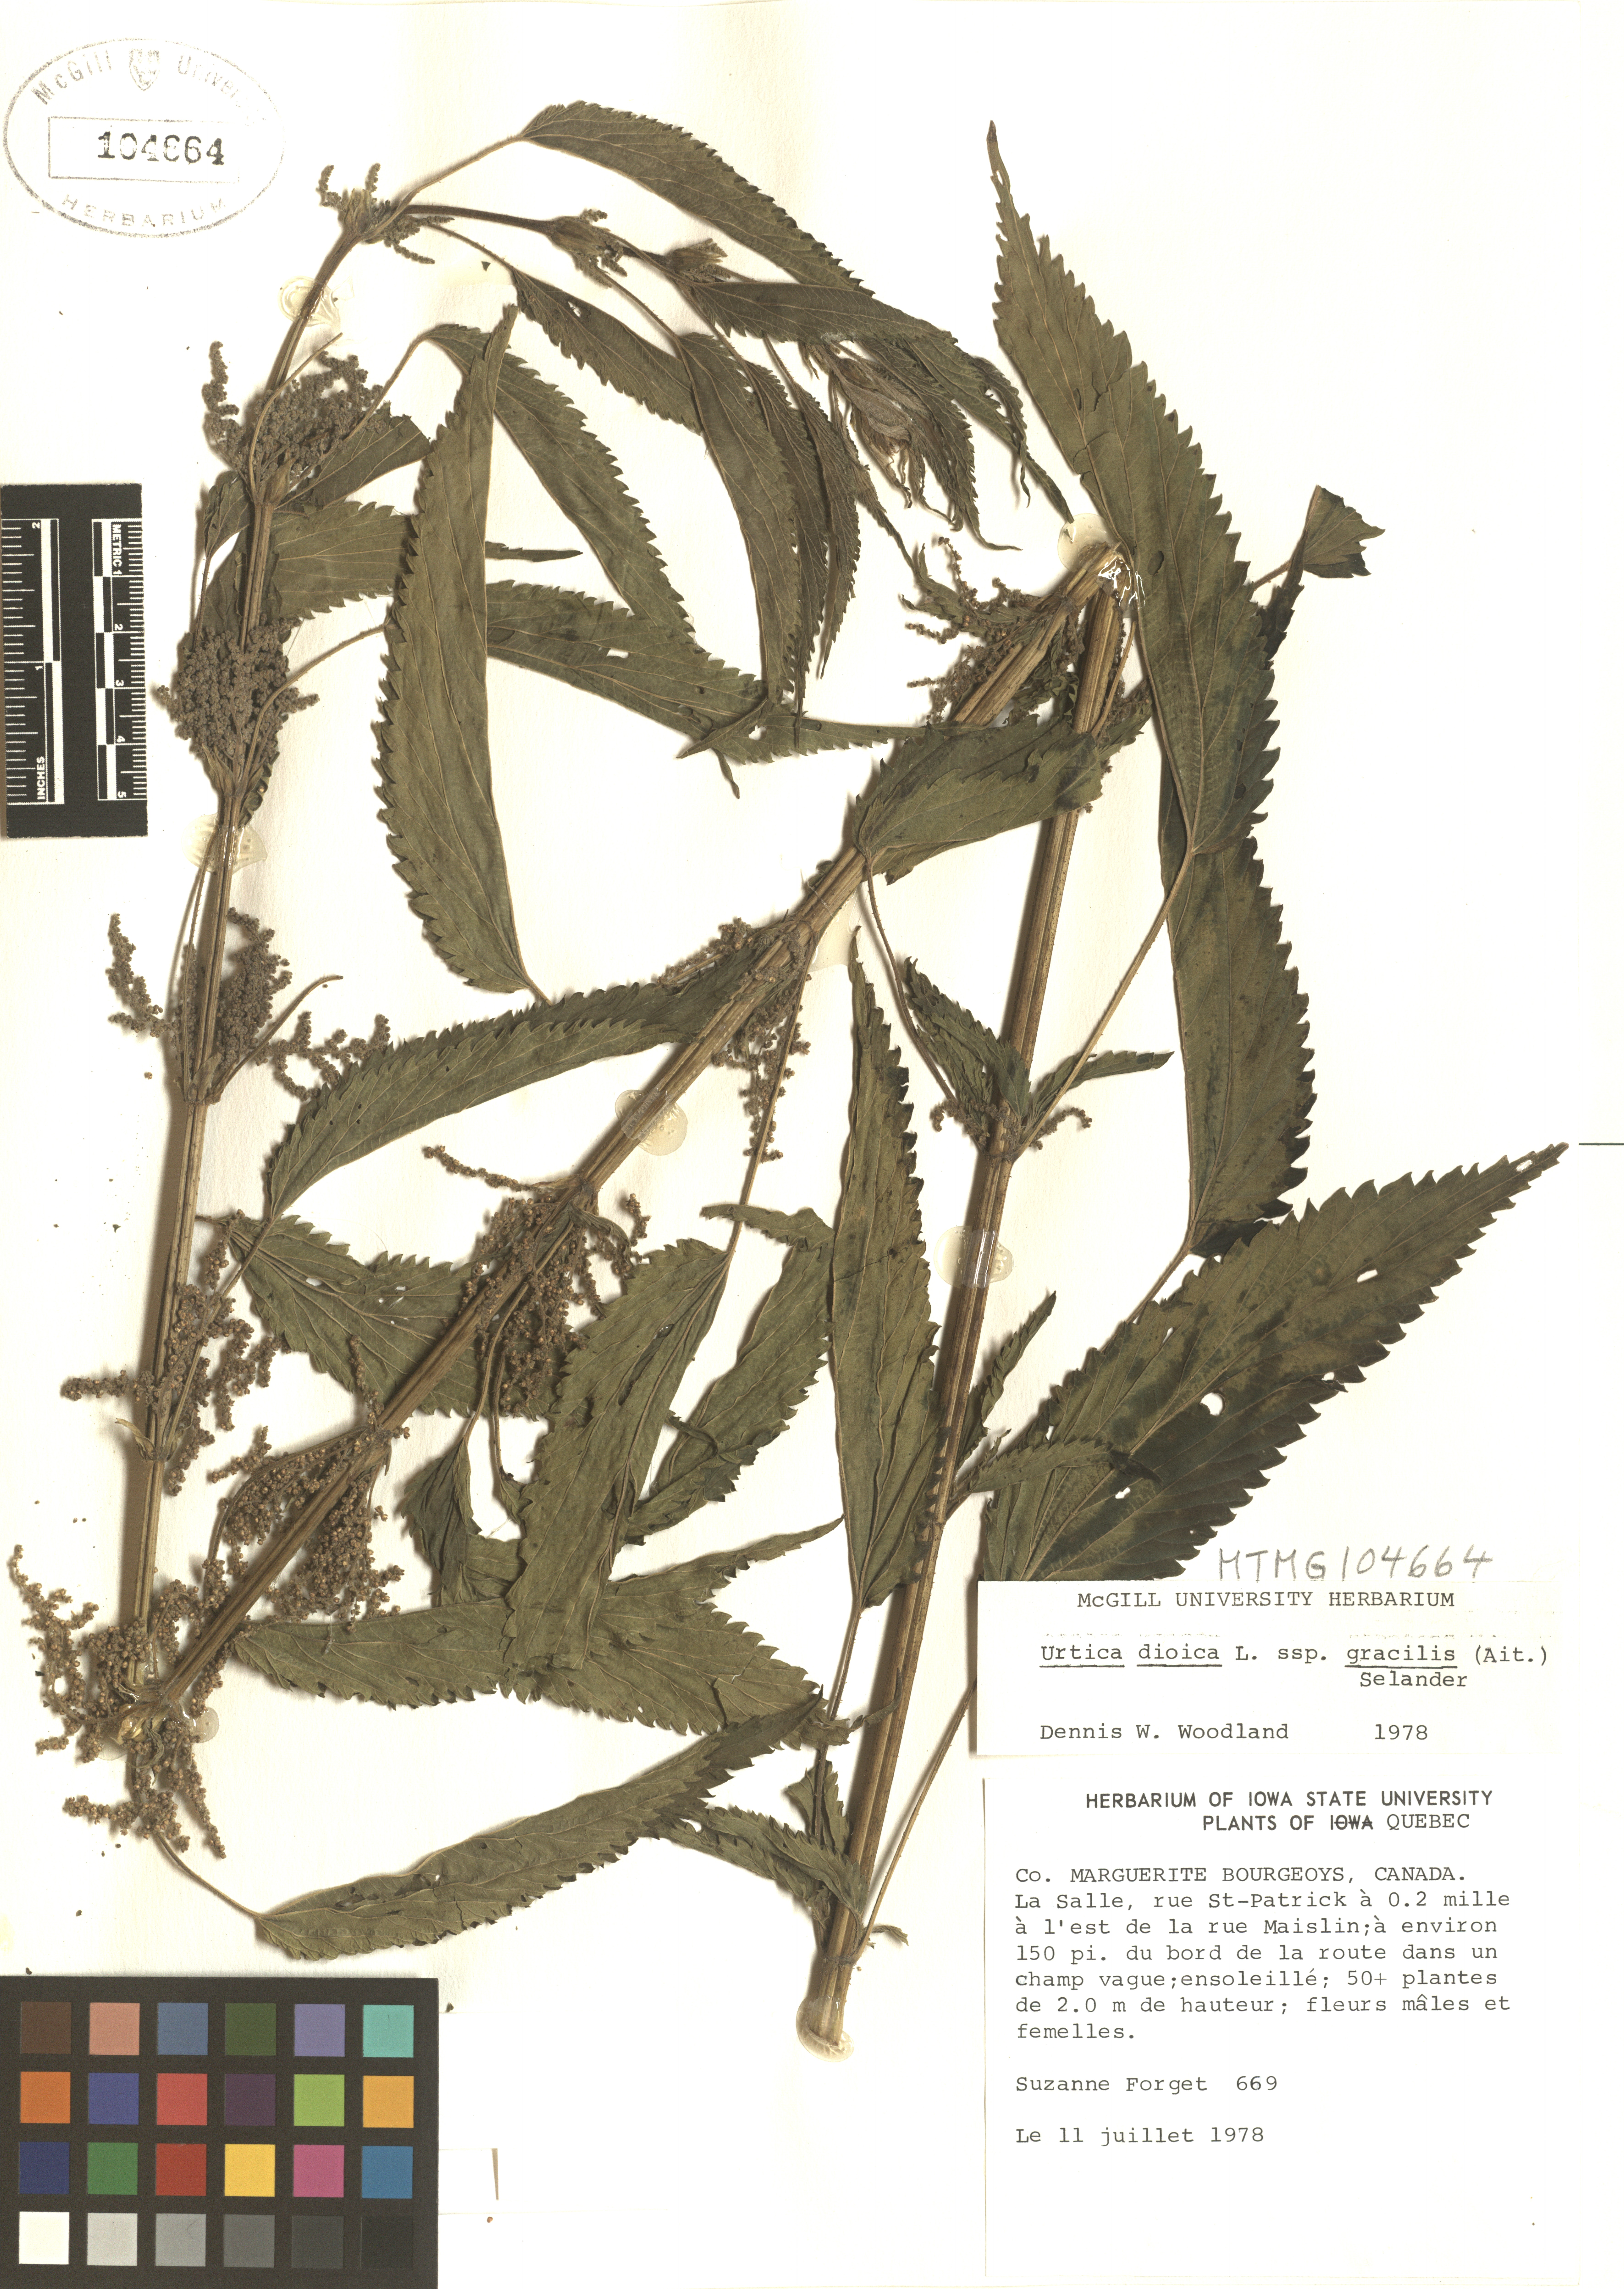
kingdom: Plantae
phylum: Tracheophyta
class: Magnoliopsida
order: Rosales
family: Urticaceae
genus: Urtica
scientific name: Urtica gracilis
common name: Slender stinging nettle
